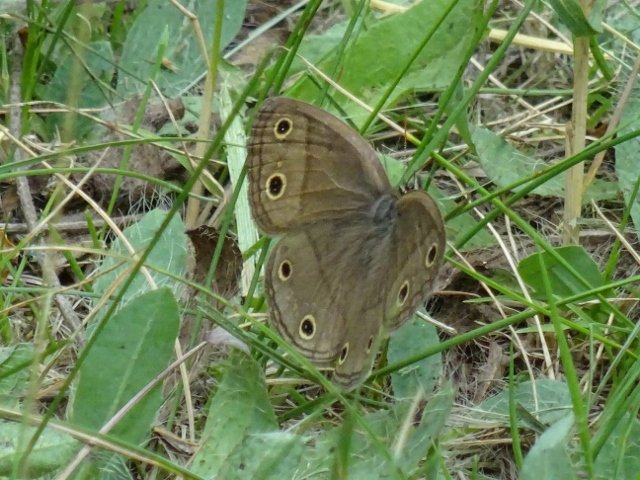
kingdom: Animalia
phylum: Arthropoda
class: Insecta
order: Lepidoptera
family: Nymphalidae
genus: Euptychia
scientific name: Euptychia cymela
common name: Little Wood Satyr
